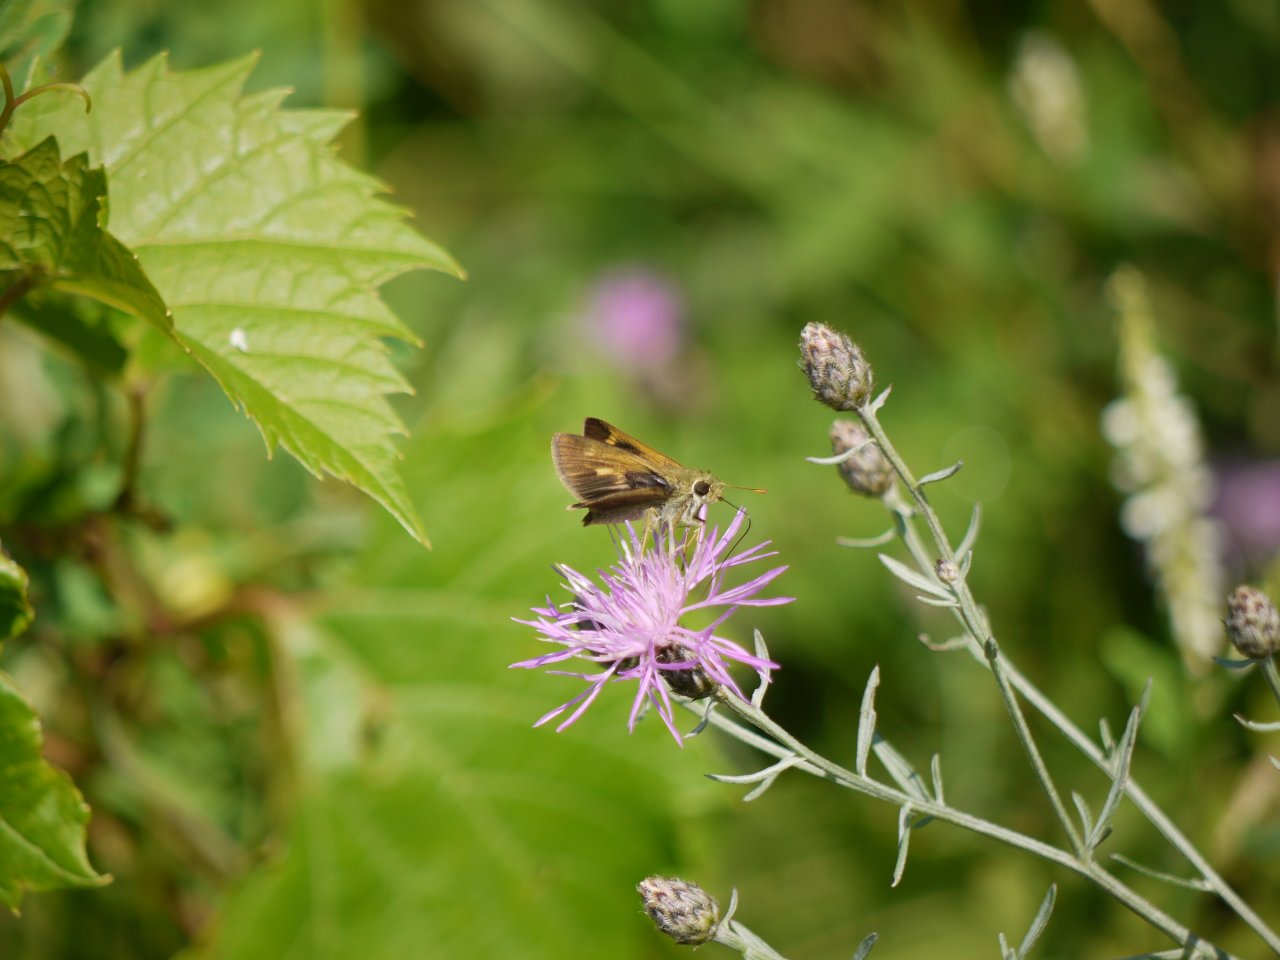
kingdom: Animalia
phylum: Arthropoda
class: Insecta
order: Lepidoptera
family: Hesperiidae
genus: Polites
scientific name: Polites egeremet
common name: Northern Broken-Dash
